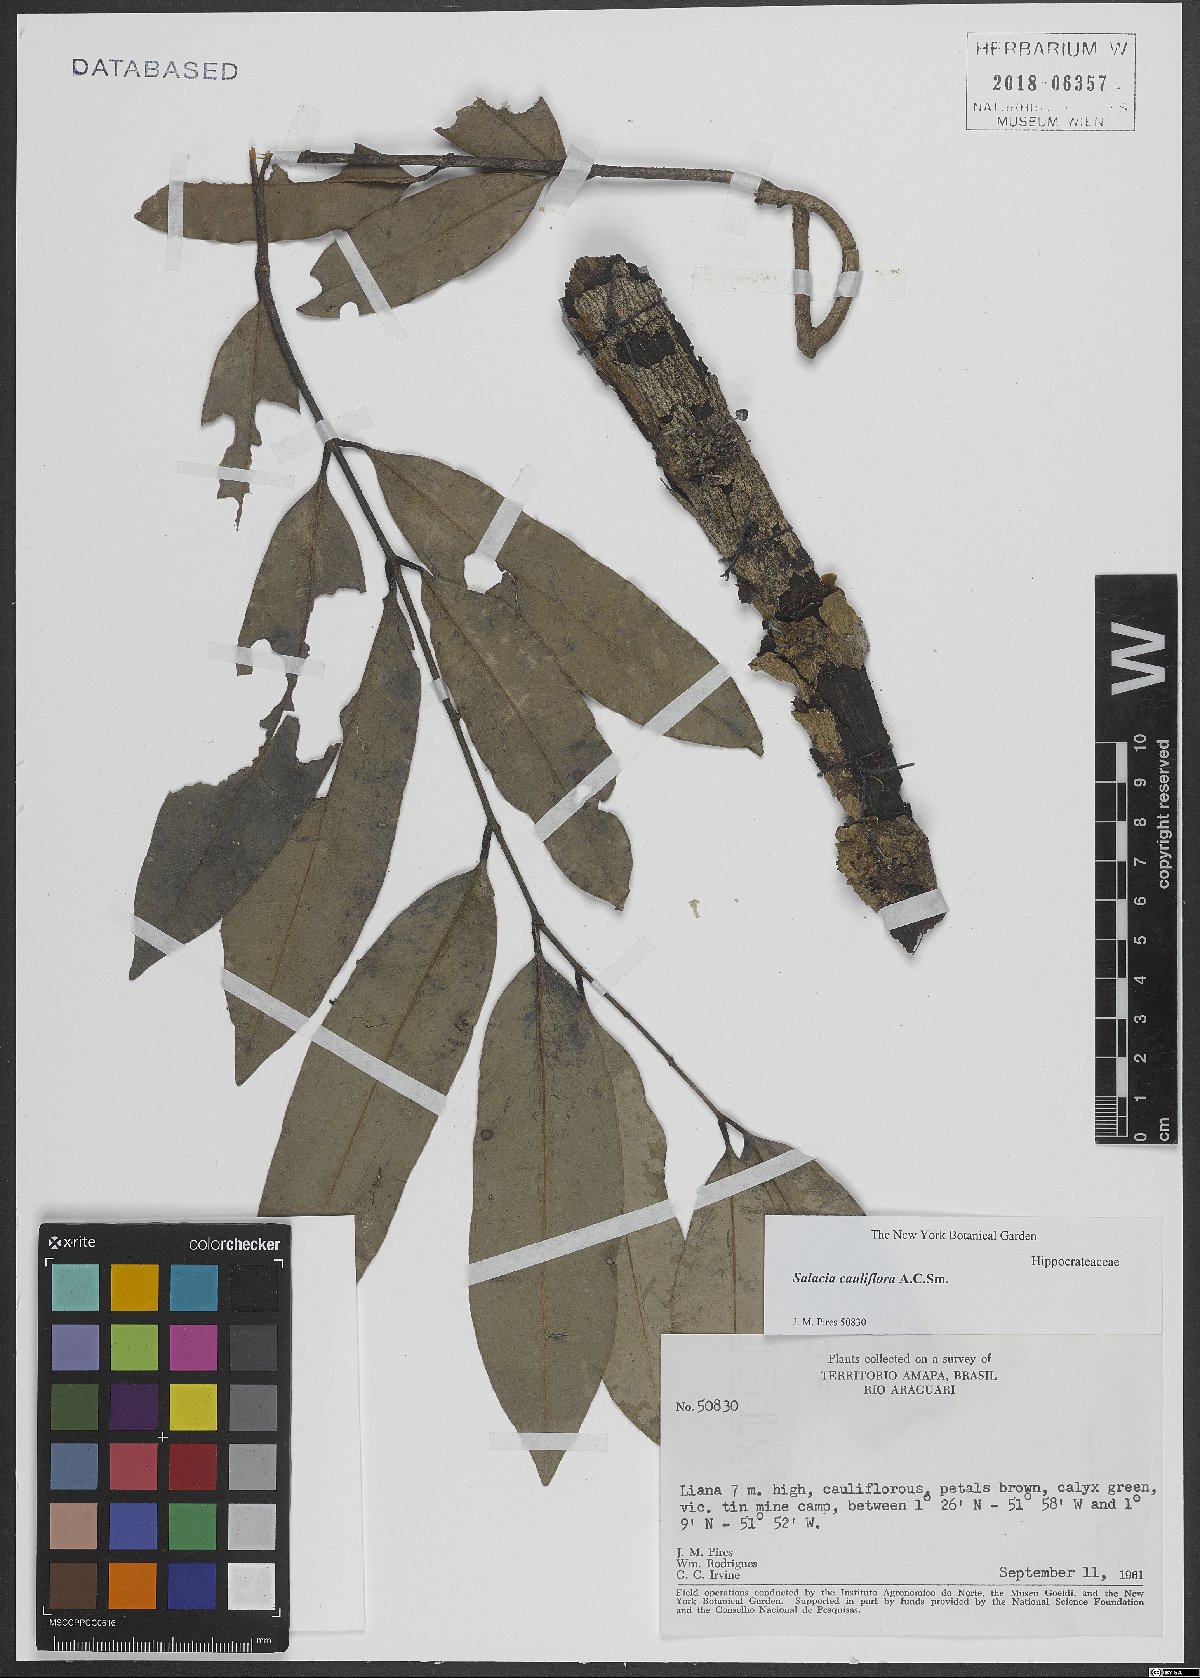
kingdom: Plantae
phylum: Tracheophyta
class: Magnoliopsida
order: Celastrales
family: Celastraceae
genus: Salacia
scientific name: Salacia cauliflora
